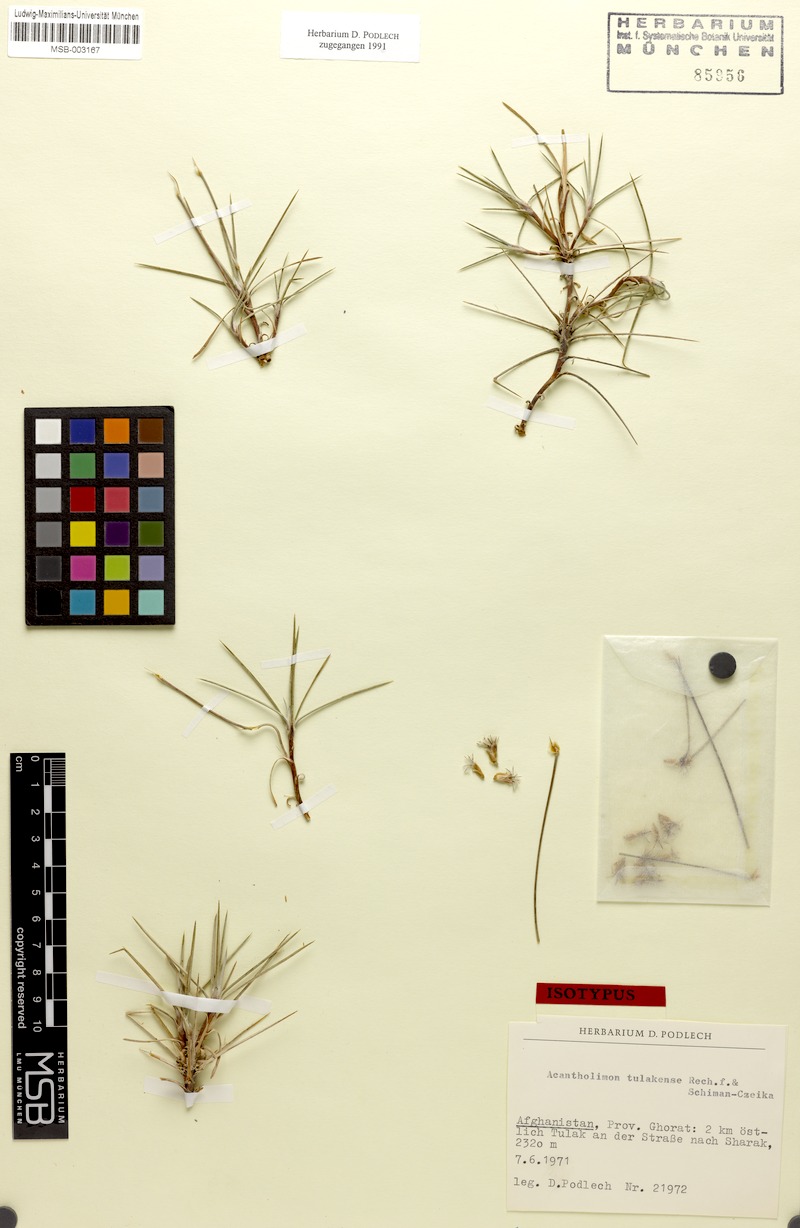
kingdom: Plantae
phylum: Tracheophyta
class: Magnoliopsida
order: Caryophyllales
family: Plumbaginaceae
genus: Acantholimon
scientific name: Acantholimon tulakense
